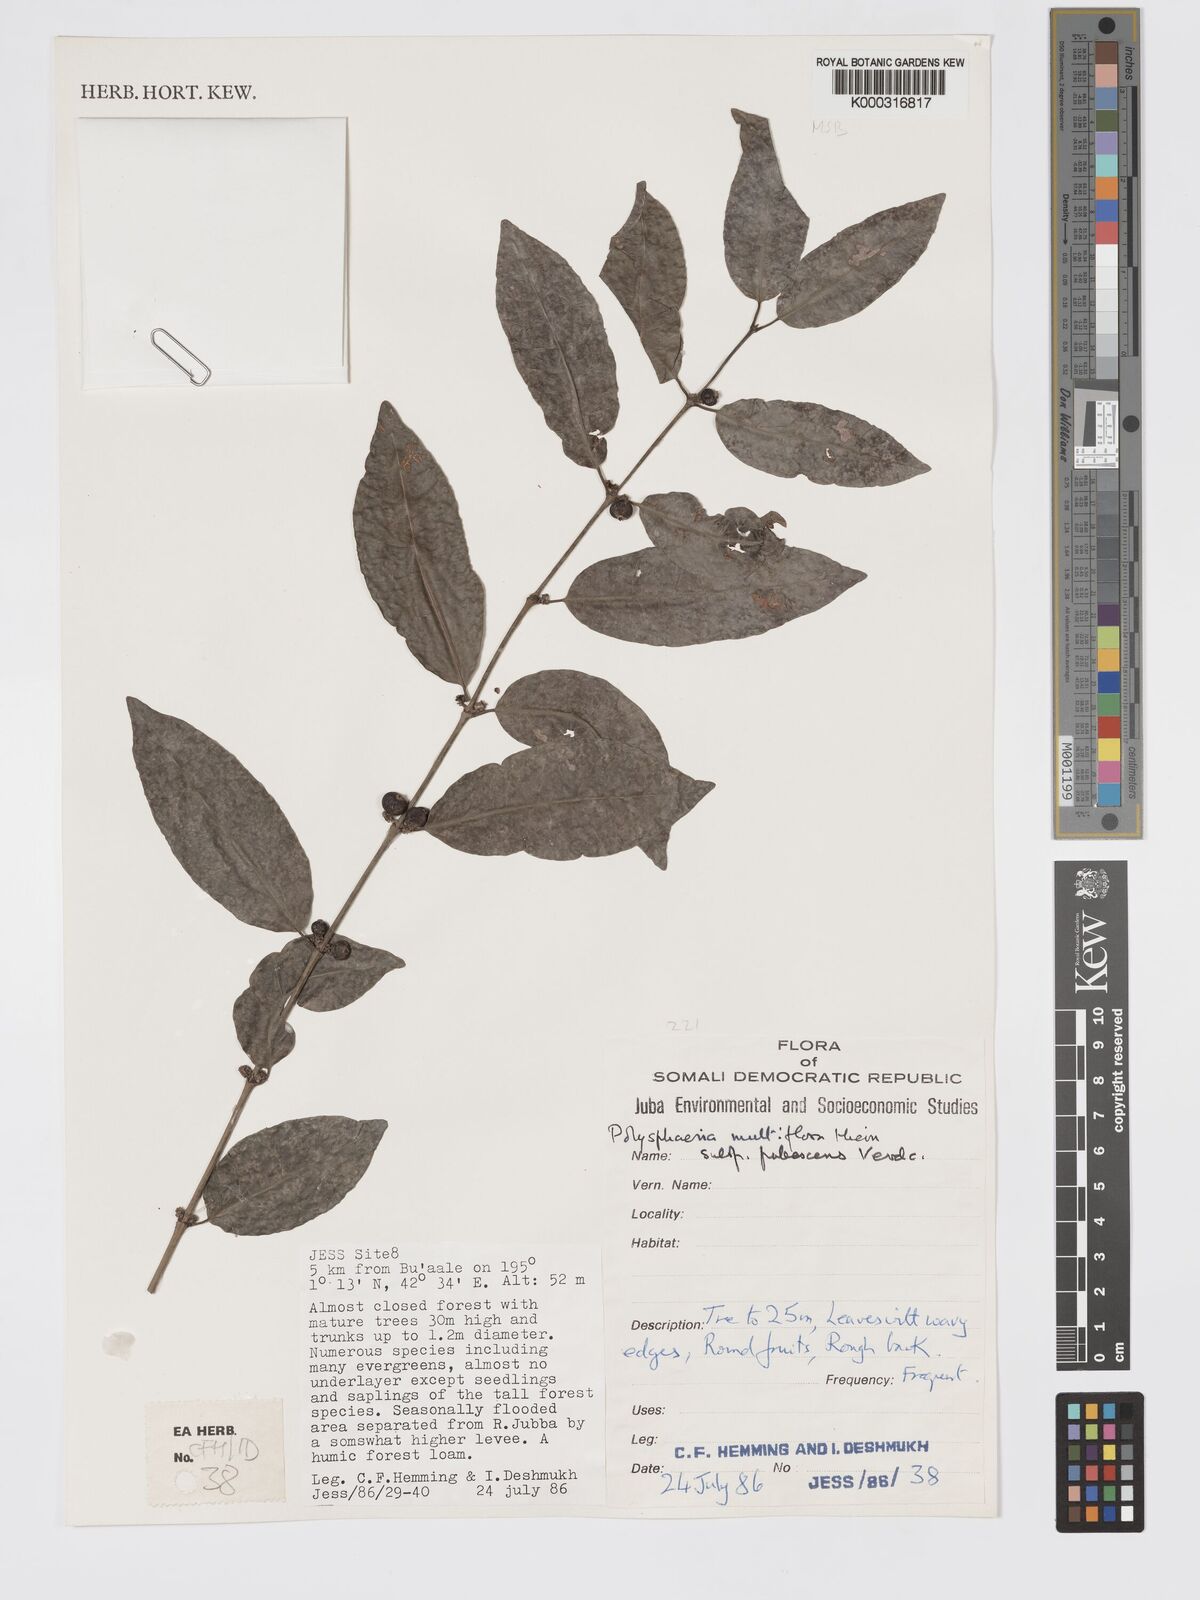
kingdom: Plantae
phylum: Tracheophyta
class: Magnoliopsida
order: Gentianales
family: Rubiaceae
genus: Polysphaeria
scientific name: Polysphaeria multiflora
